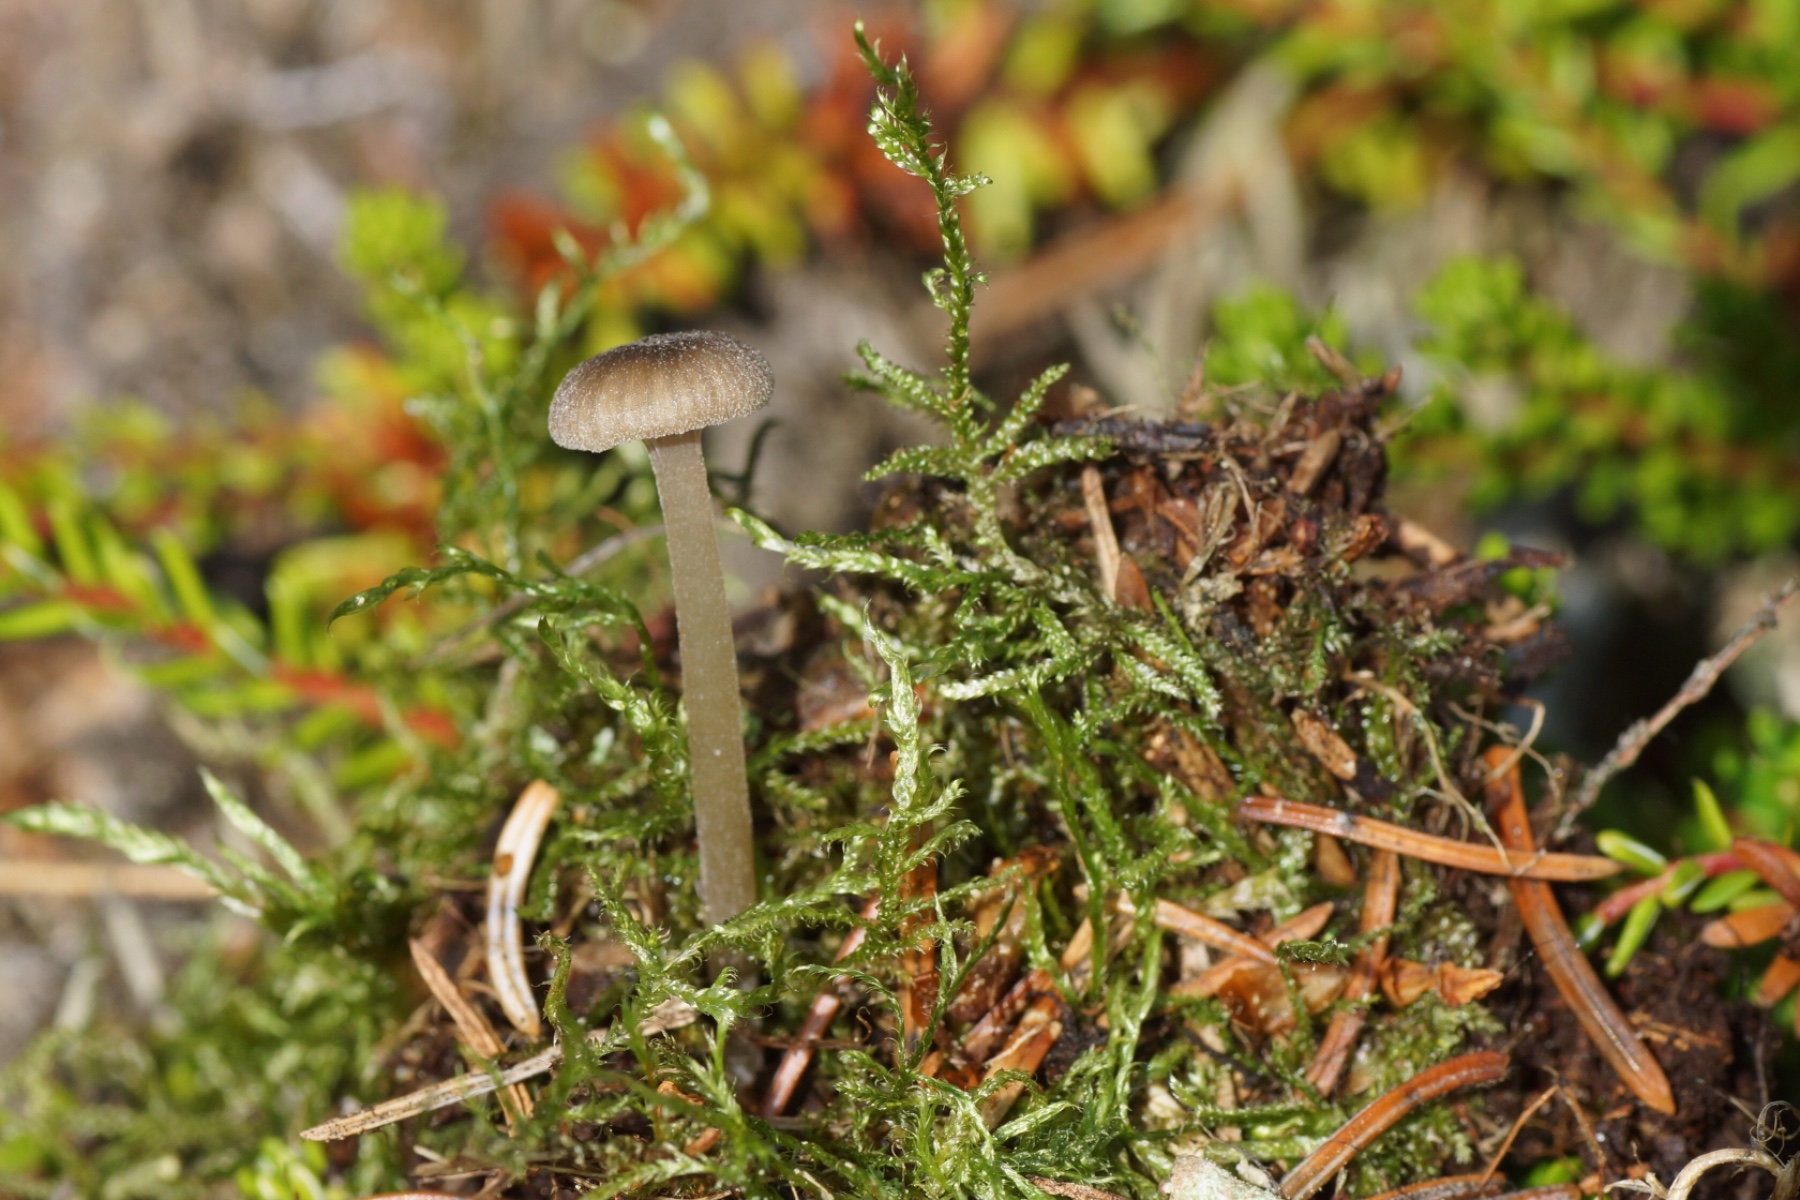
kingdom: Fungi
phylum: Basidiomycota
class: Agaricomycetes
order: Agaricales
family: Entolomataceae
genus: Entoloma
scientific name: Entoloma rhodocylix
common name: fjernbladet rødblad
